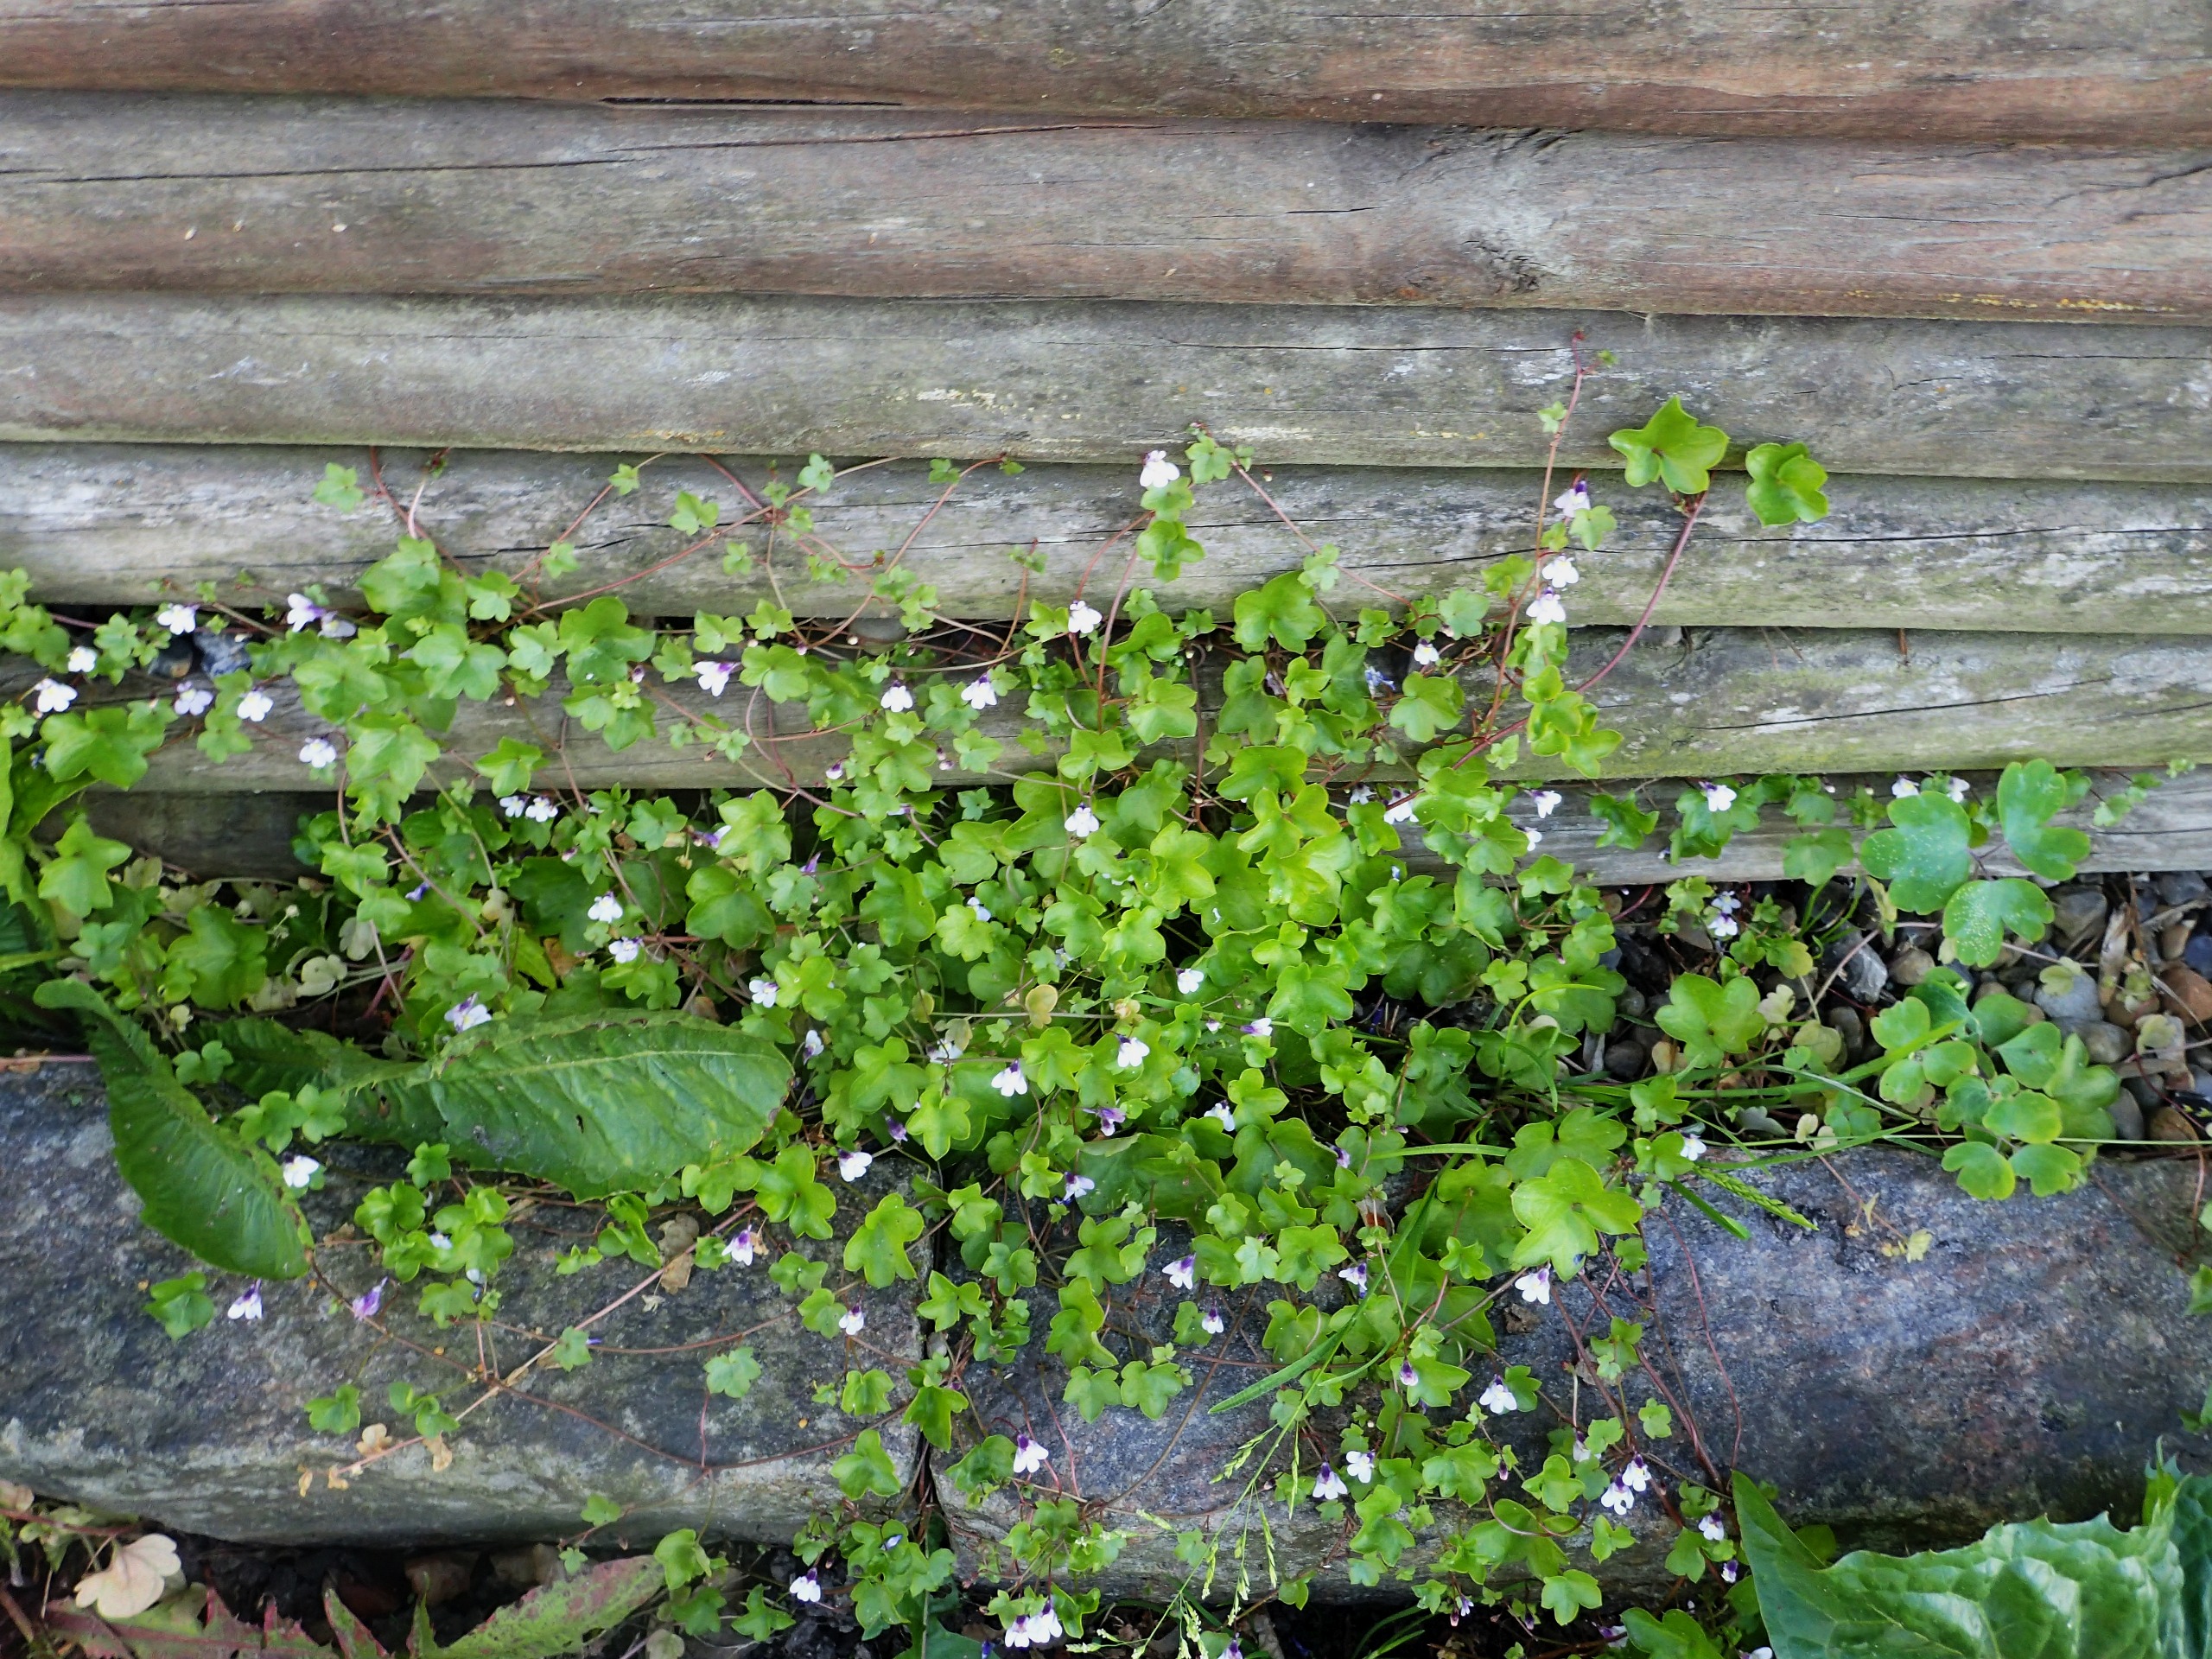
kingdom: Plantae
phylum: Tracheophyta
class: Magnoliopsida
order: Lamiales
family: Plantaginaceae
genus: Cymbalaria
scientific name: Cymbalaria muralis
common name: Vedbend-torskemund
